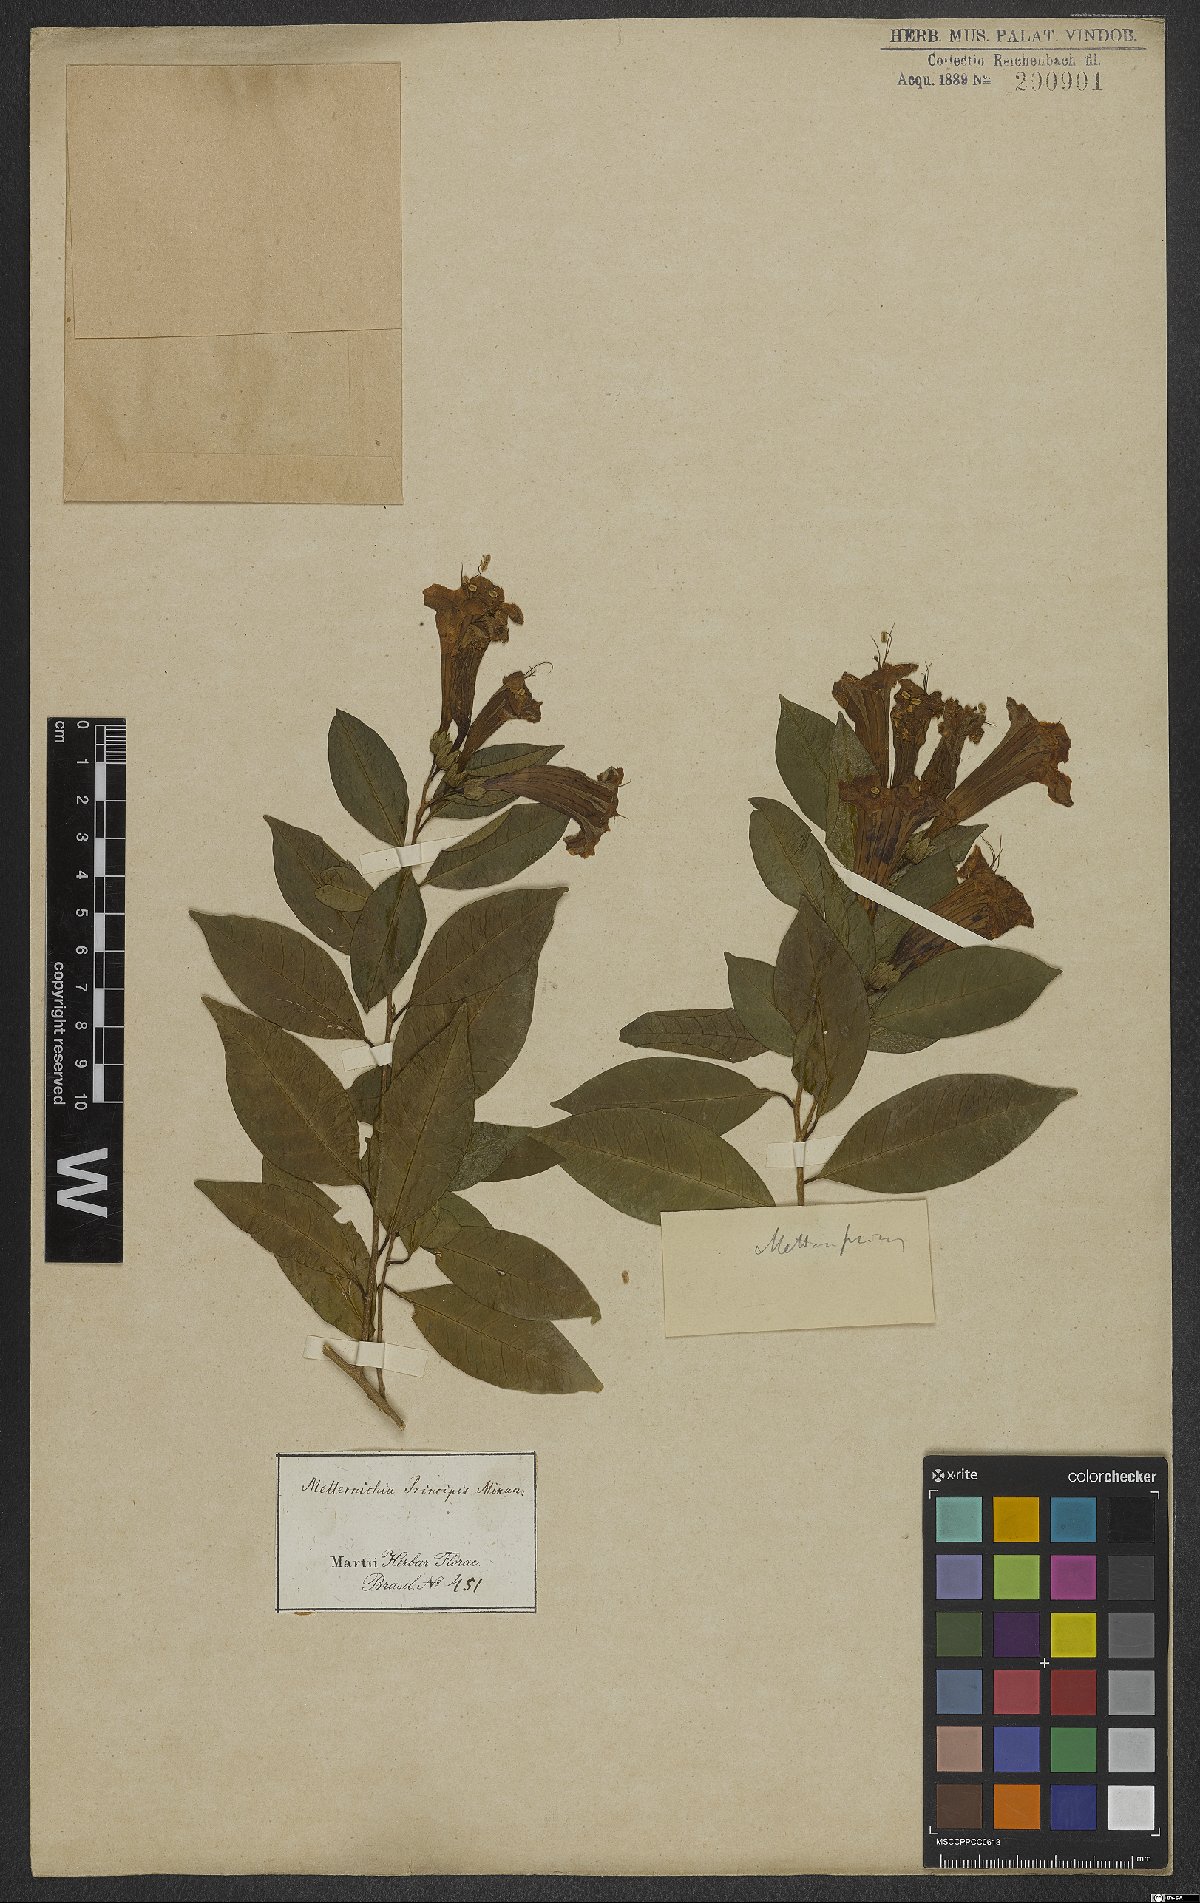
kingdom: Plantae
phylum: Tracheophyta
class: Magnoliopsida
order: Solanales
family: Solanaceae
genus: Metternichia
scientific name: Metternichia principis
